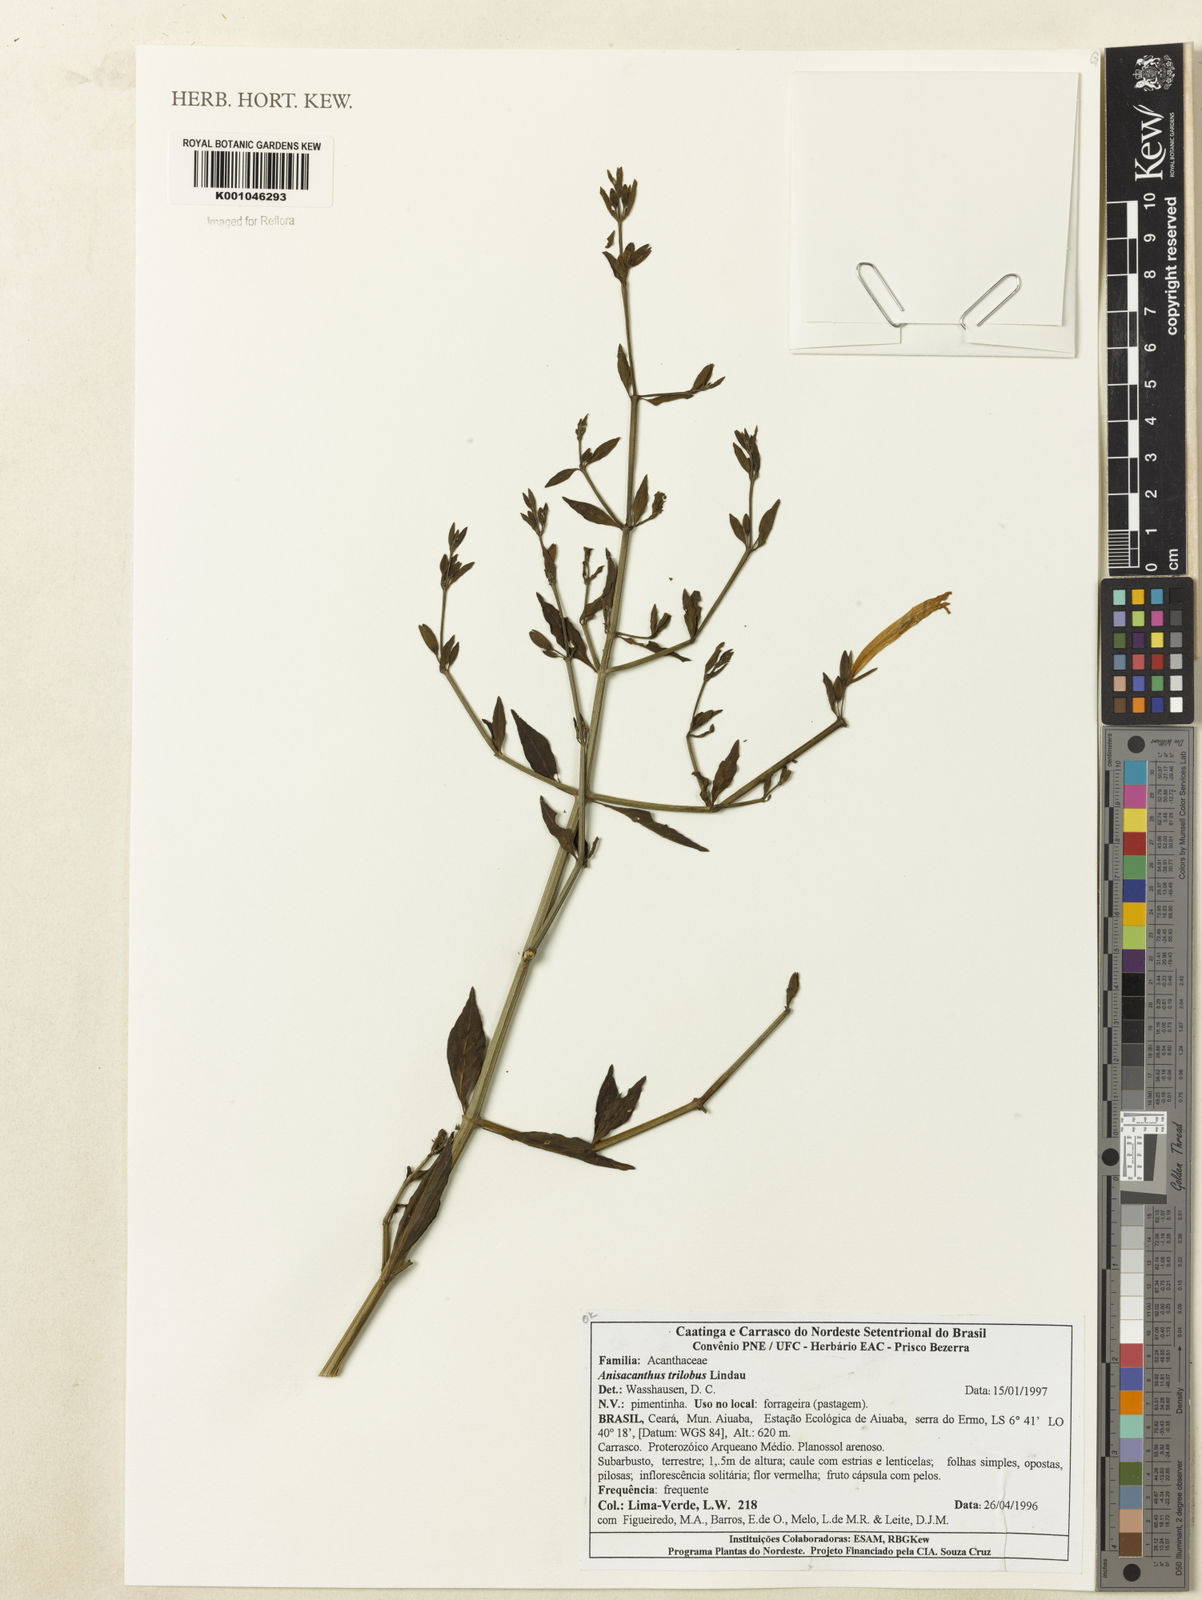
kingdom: Plantae
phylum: Tracheophyta
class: Magnoliopsida
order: Lamiales
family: Acanthaceae
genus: Justicia
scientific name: Justicia triloba
